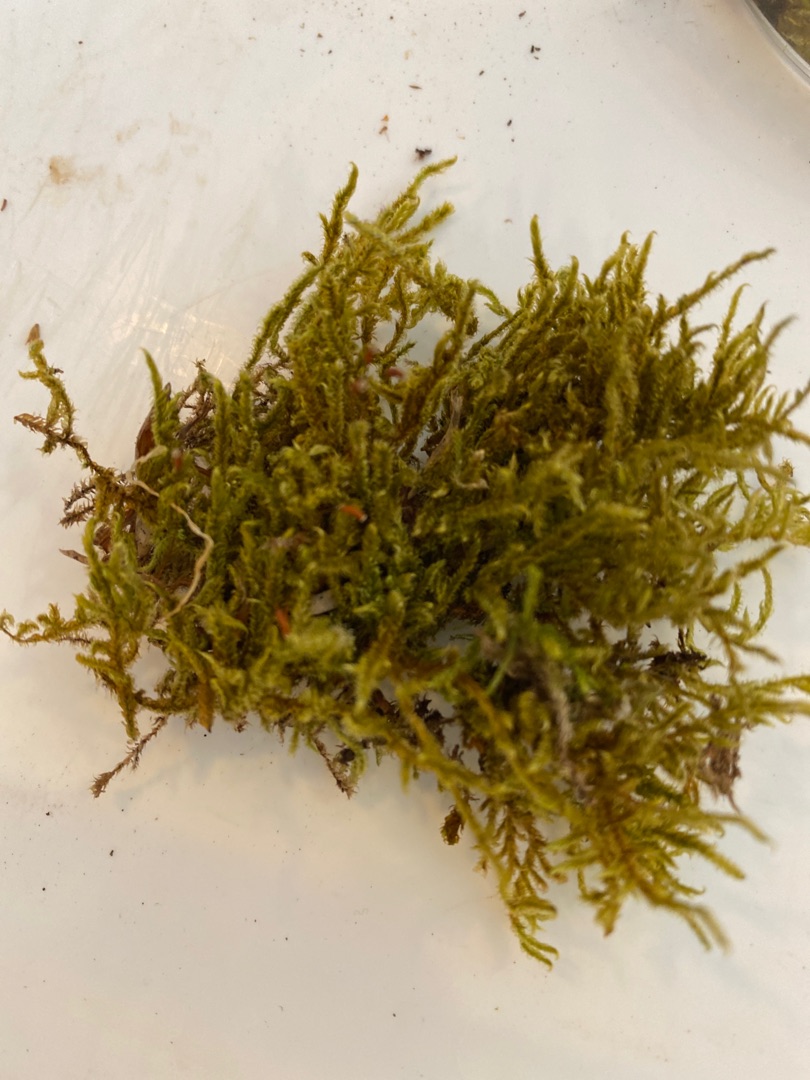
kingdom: Plantae
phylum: Bryophyta
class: Bryopsida
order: Hypnales
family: Hypnaceae
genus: Hypnum
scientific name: Hypnum cupressiforme
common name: Almindelig cypresmos
